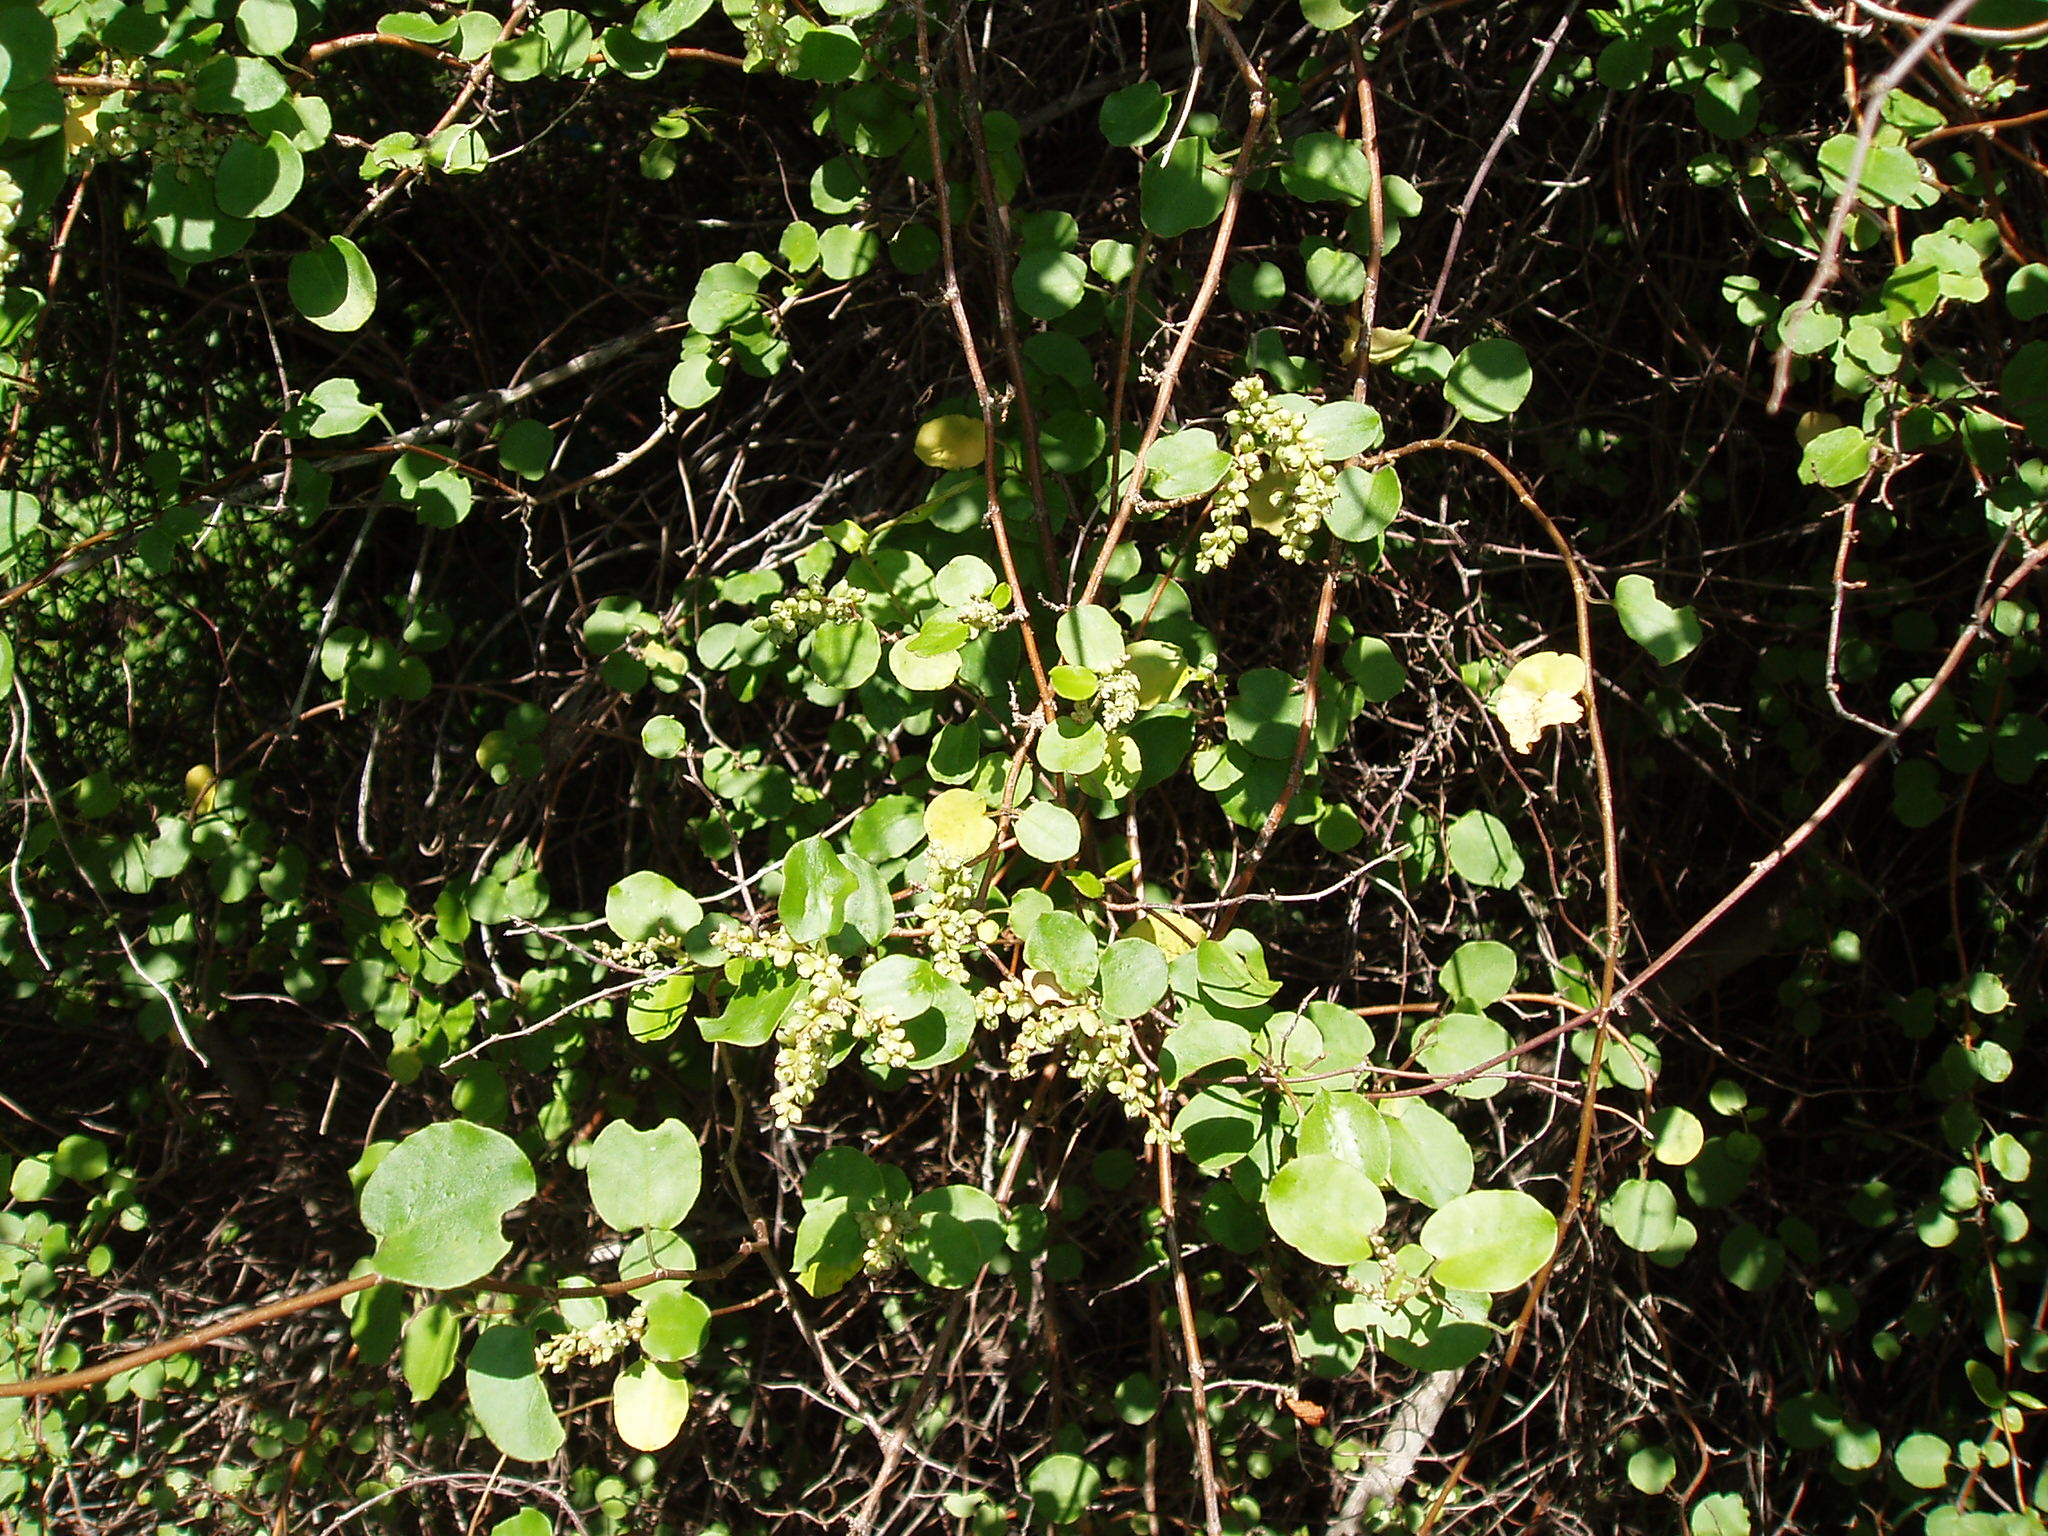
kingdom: Plantae
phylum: Tracheophyta
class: Magnoliopsida
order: Caryophyllales
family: Polygonaceae
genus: Muehlenbeckia
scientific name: Muehlenbeckia
